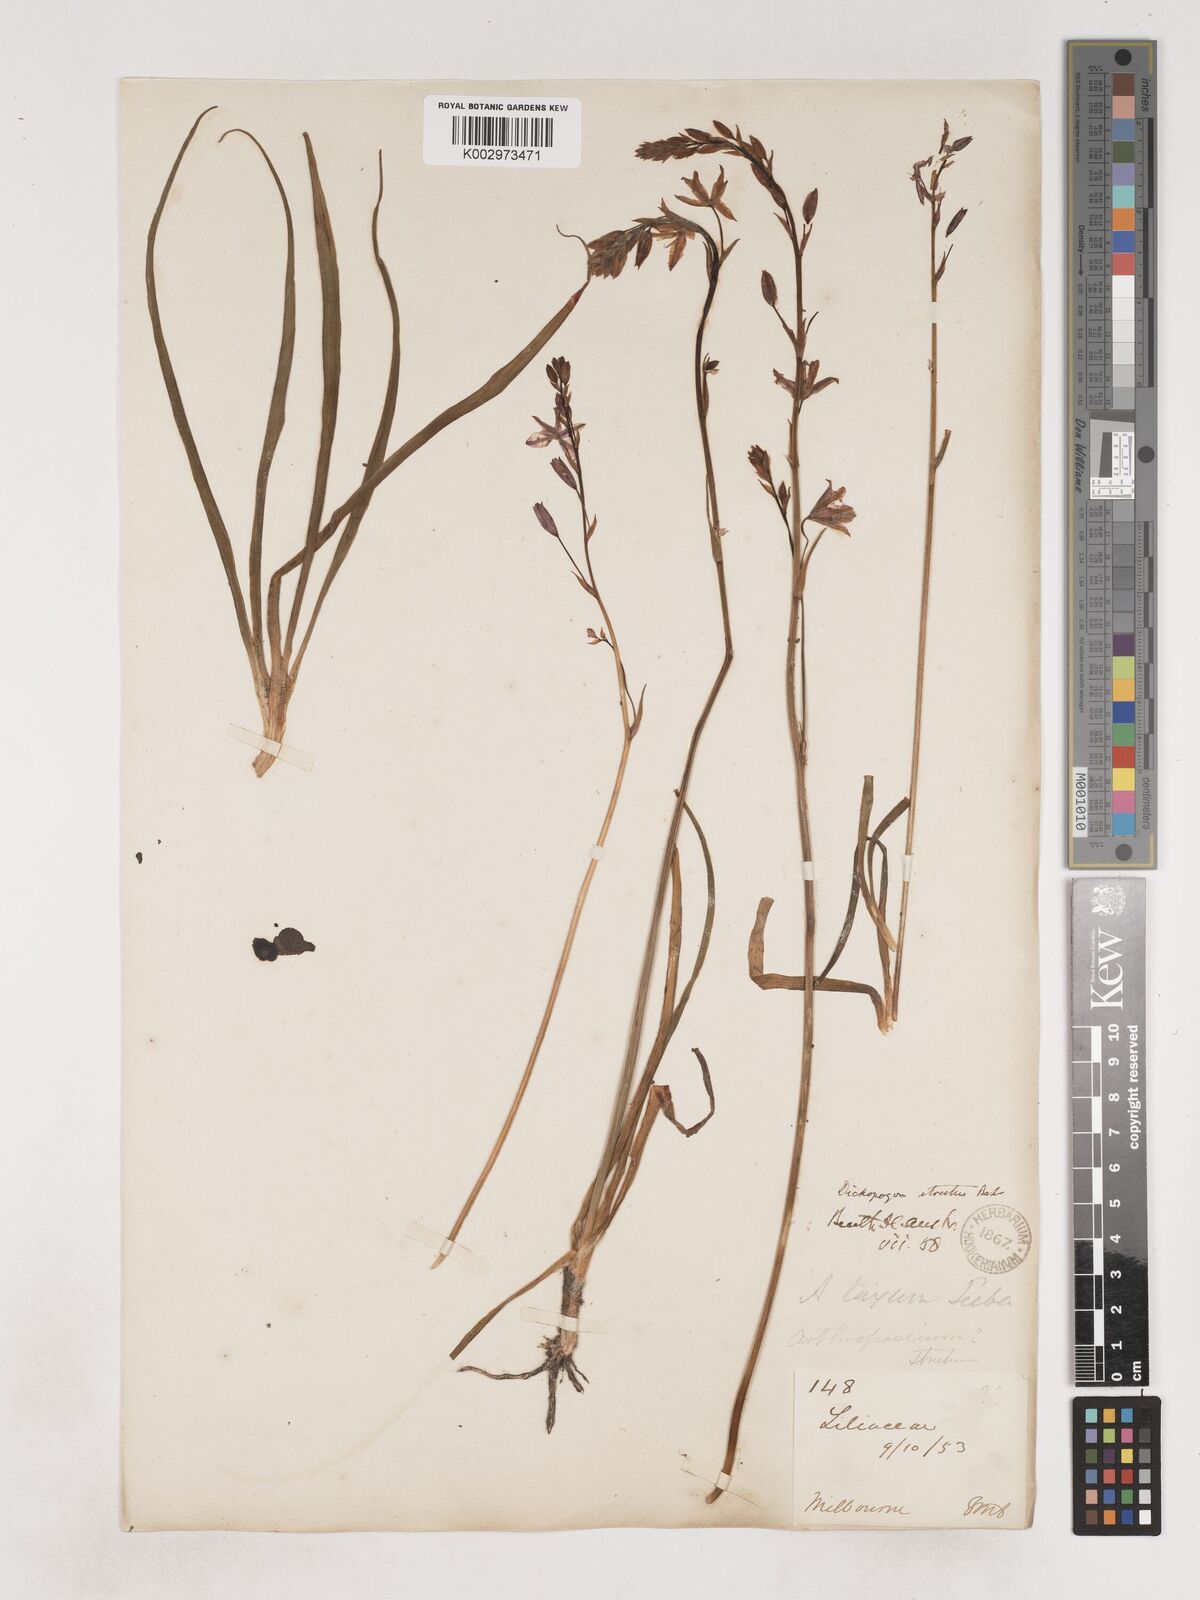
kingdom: Plantae
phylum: Tracheophyta
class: Liliopsida
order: Asparagales
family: Asparagaceae
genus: Arthropodium
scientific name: Arthropodium strictum
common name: Chocolate-lily
